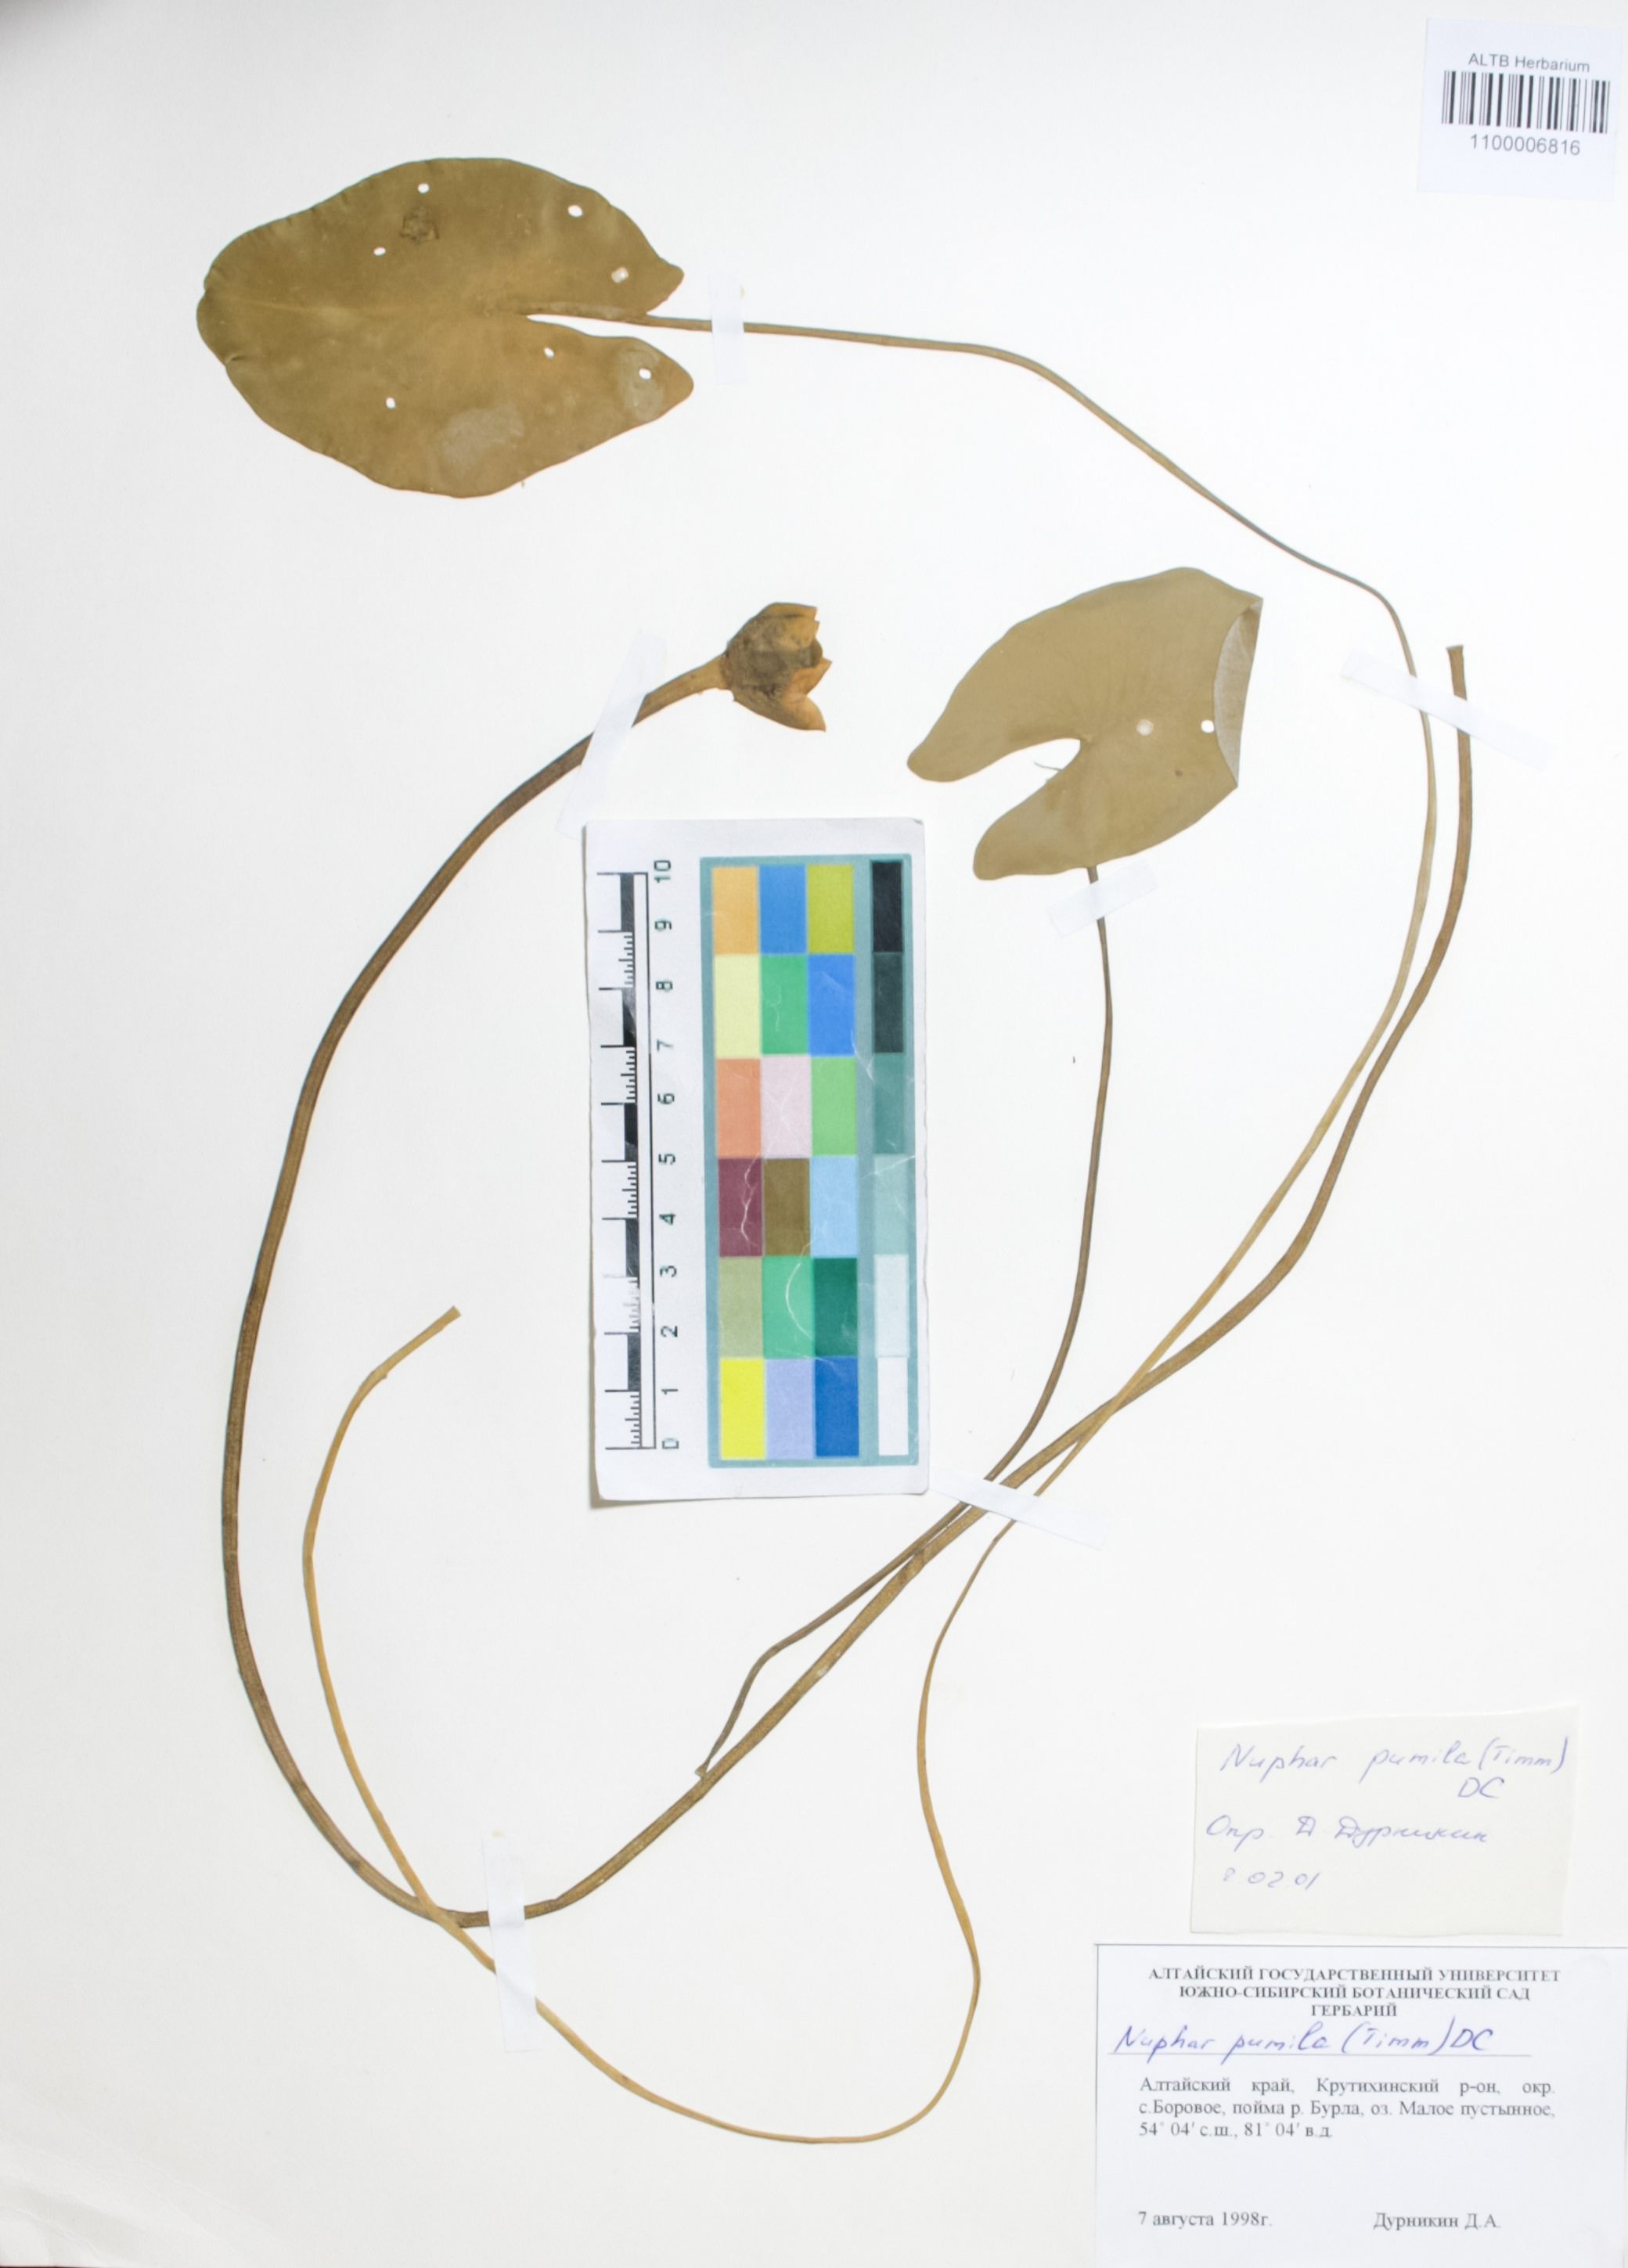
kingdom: Plantae
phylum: Tracheophyta
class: Magnoliopsida
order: Nymphaeales
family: Nymphaeaceae
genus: Nuphar
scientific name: Nuphar pumila
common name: Least water-lily
